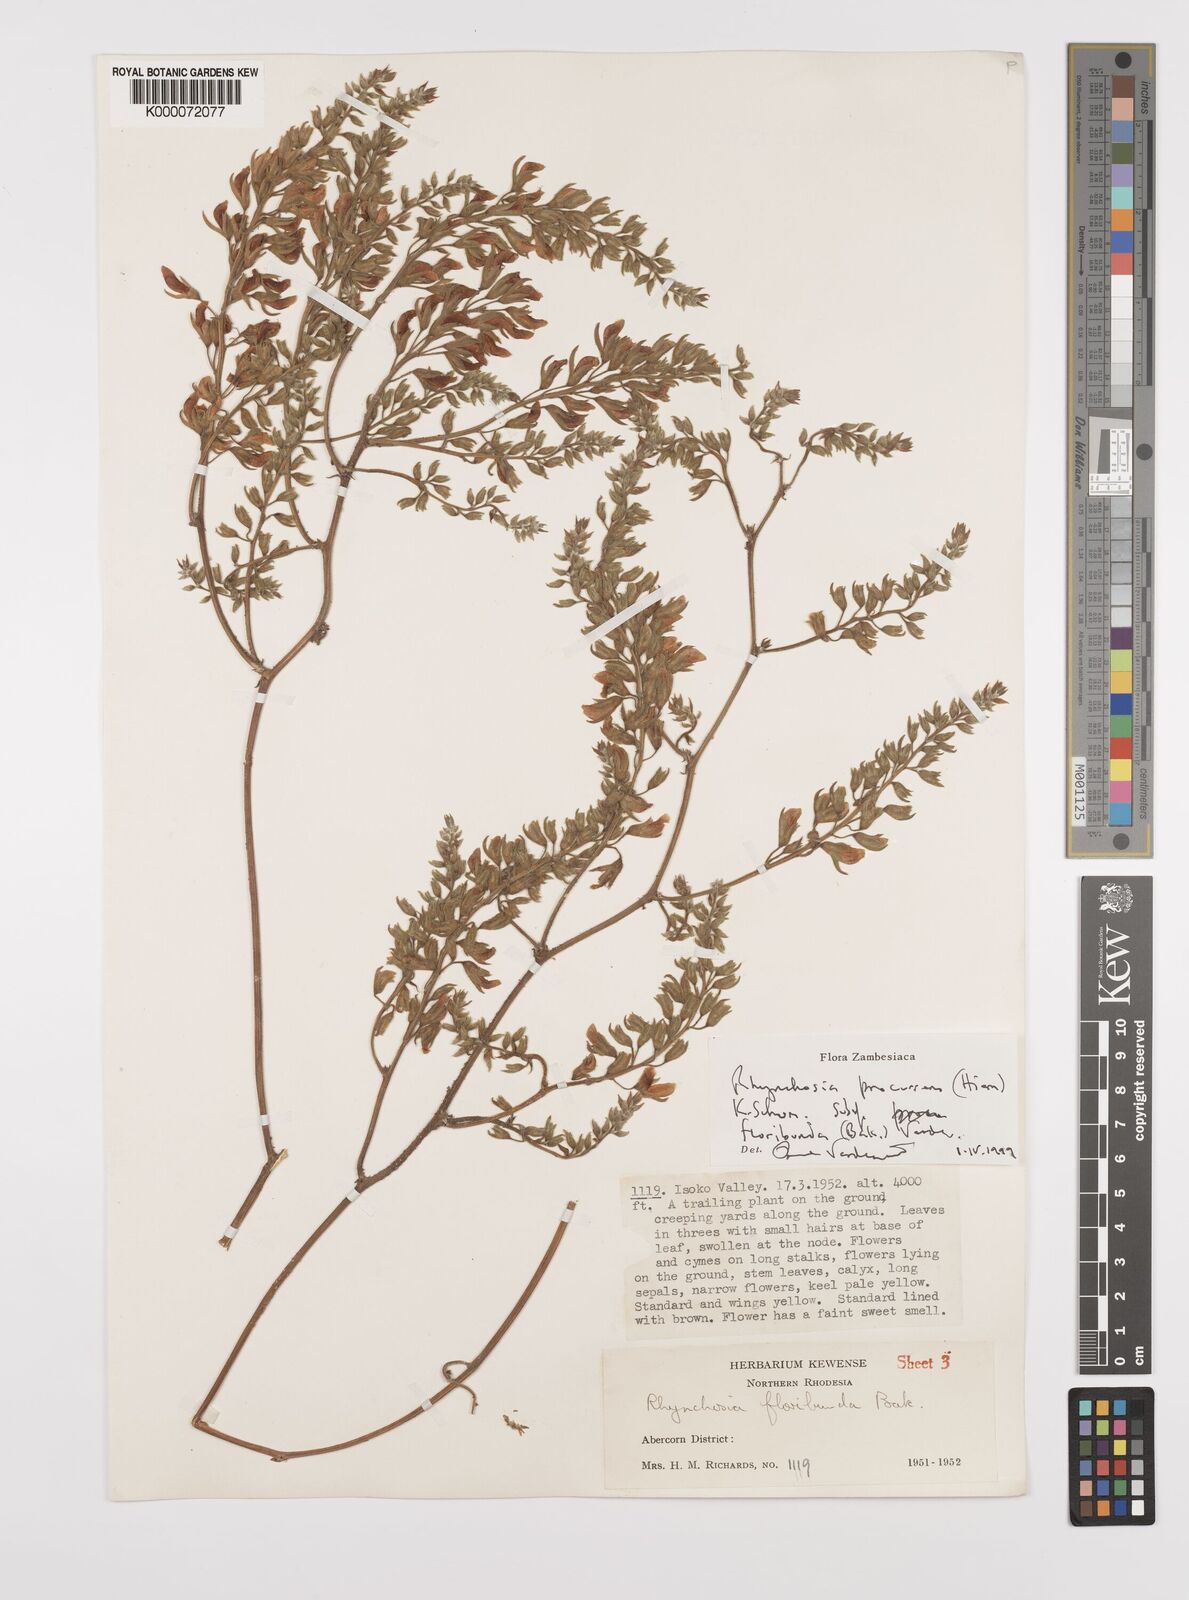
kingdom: Plantae
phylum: Tracheophyta
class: Magnoliopsida
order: Fabales
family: Fabaceae
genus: Rhynchosia
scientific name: Rhynchosia procurrens
